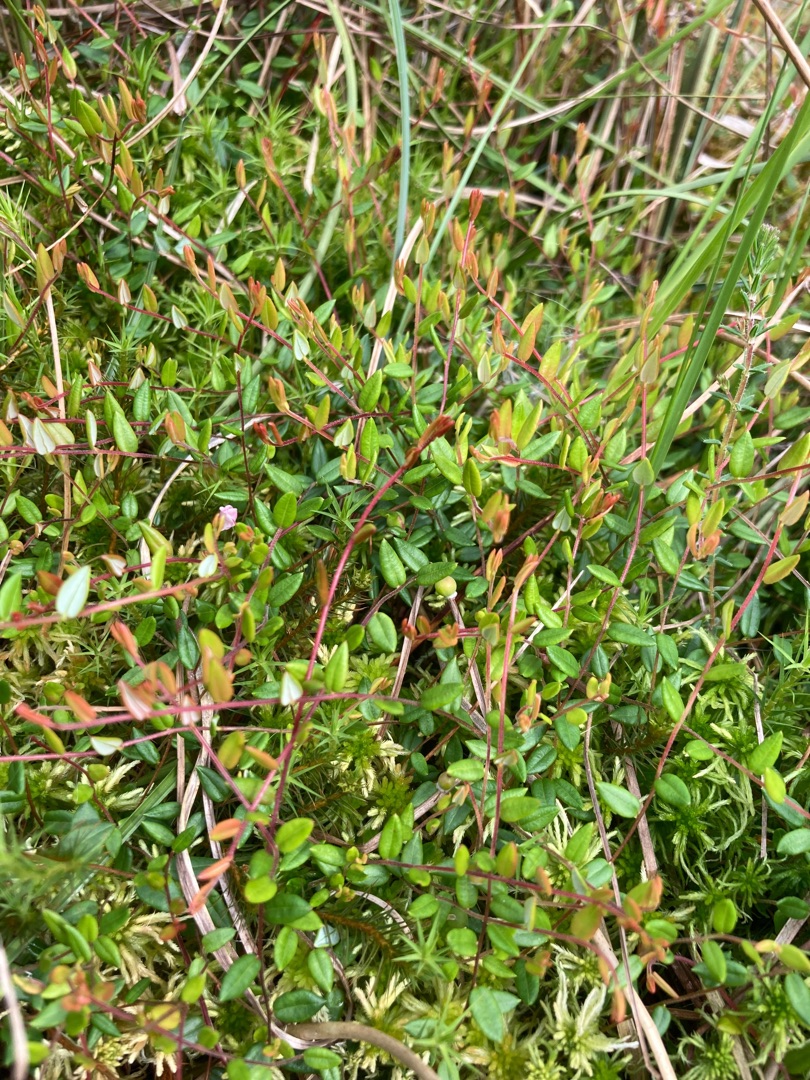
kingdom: Plantae
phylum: Tracheophyta
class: Magnoliopsida
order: Ericales
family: Ericaceae
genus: Vaccinium
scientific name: Vaccinium oxycoccos
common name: Tranebær
